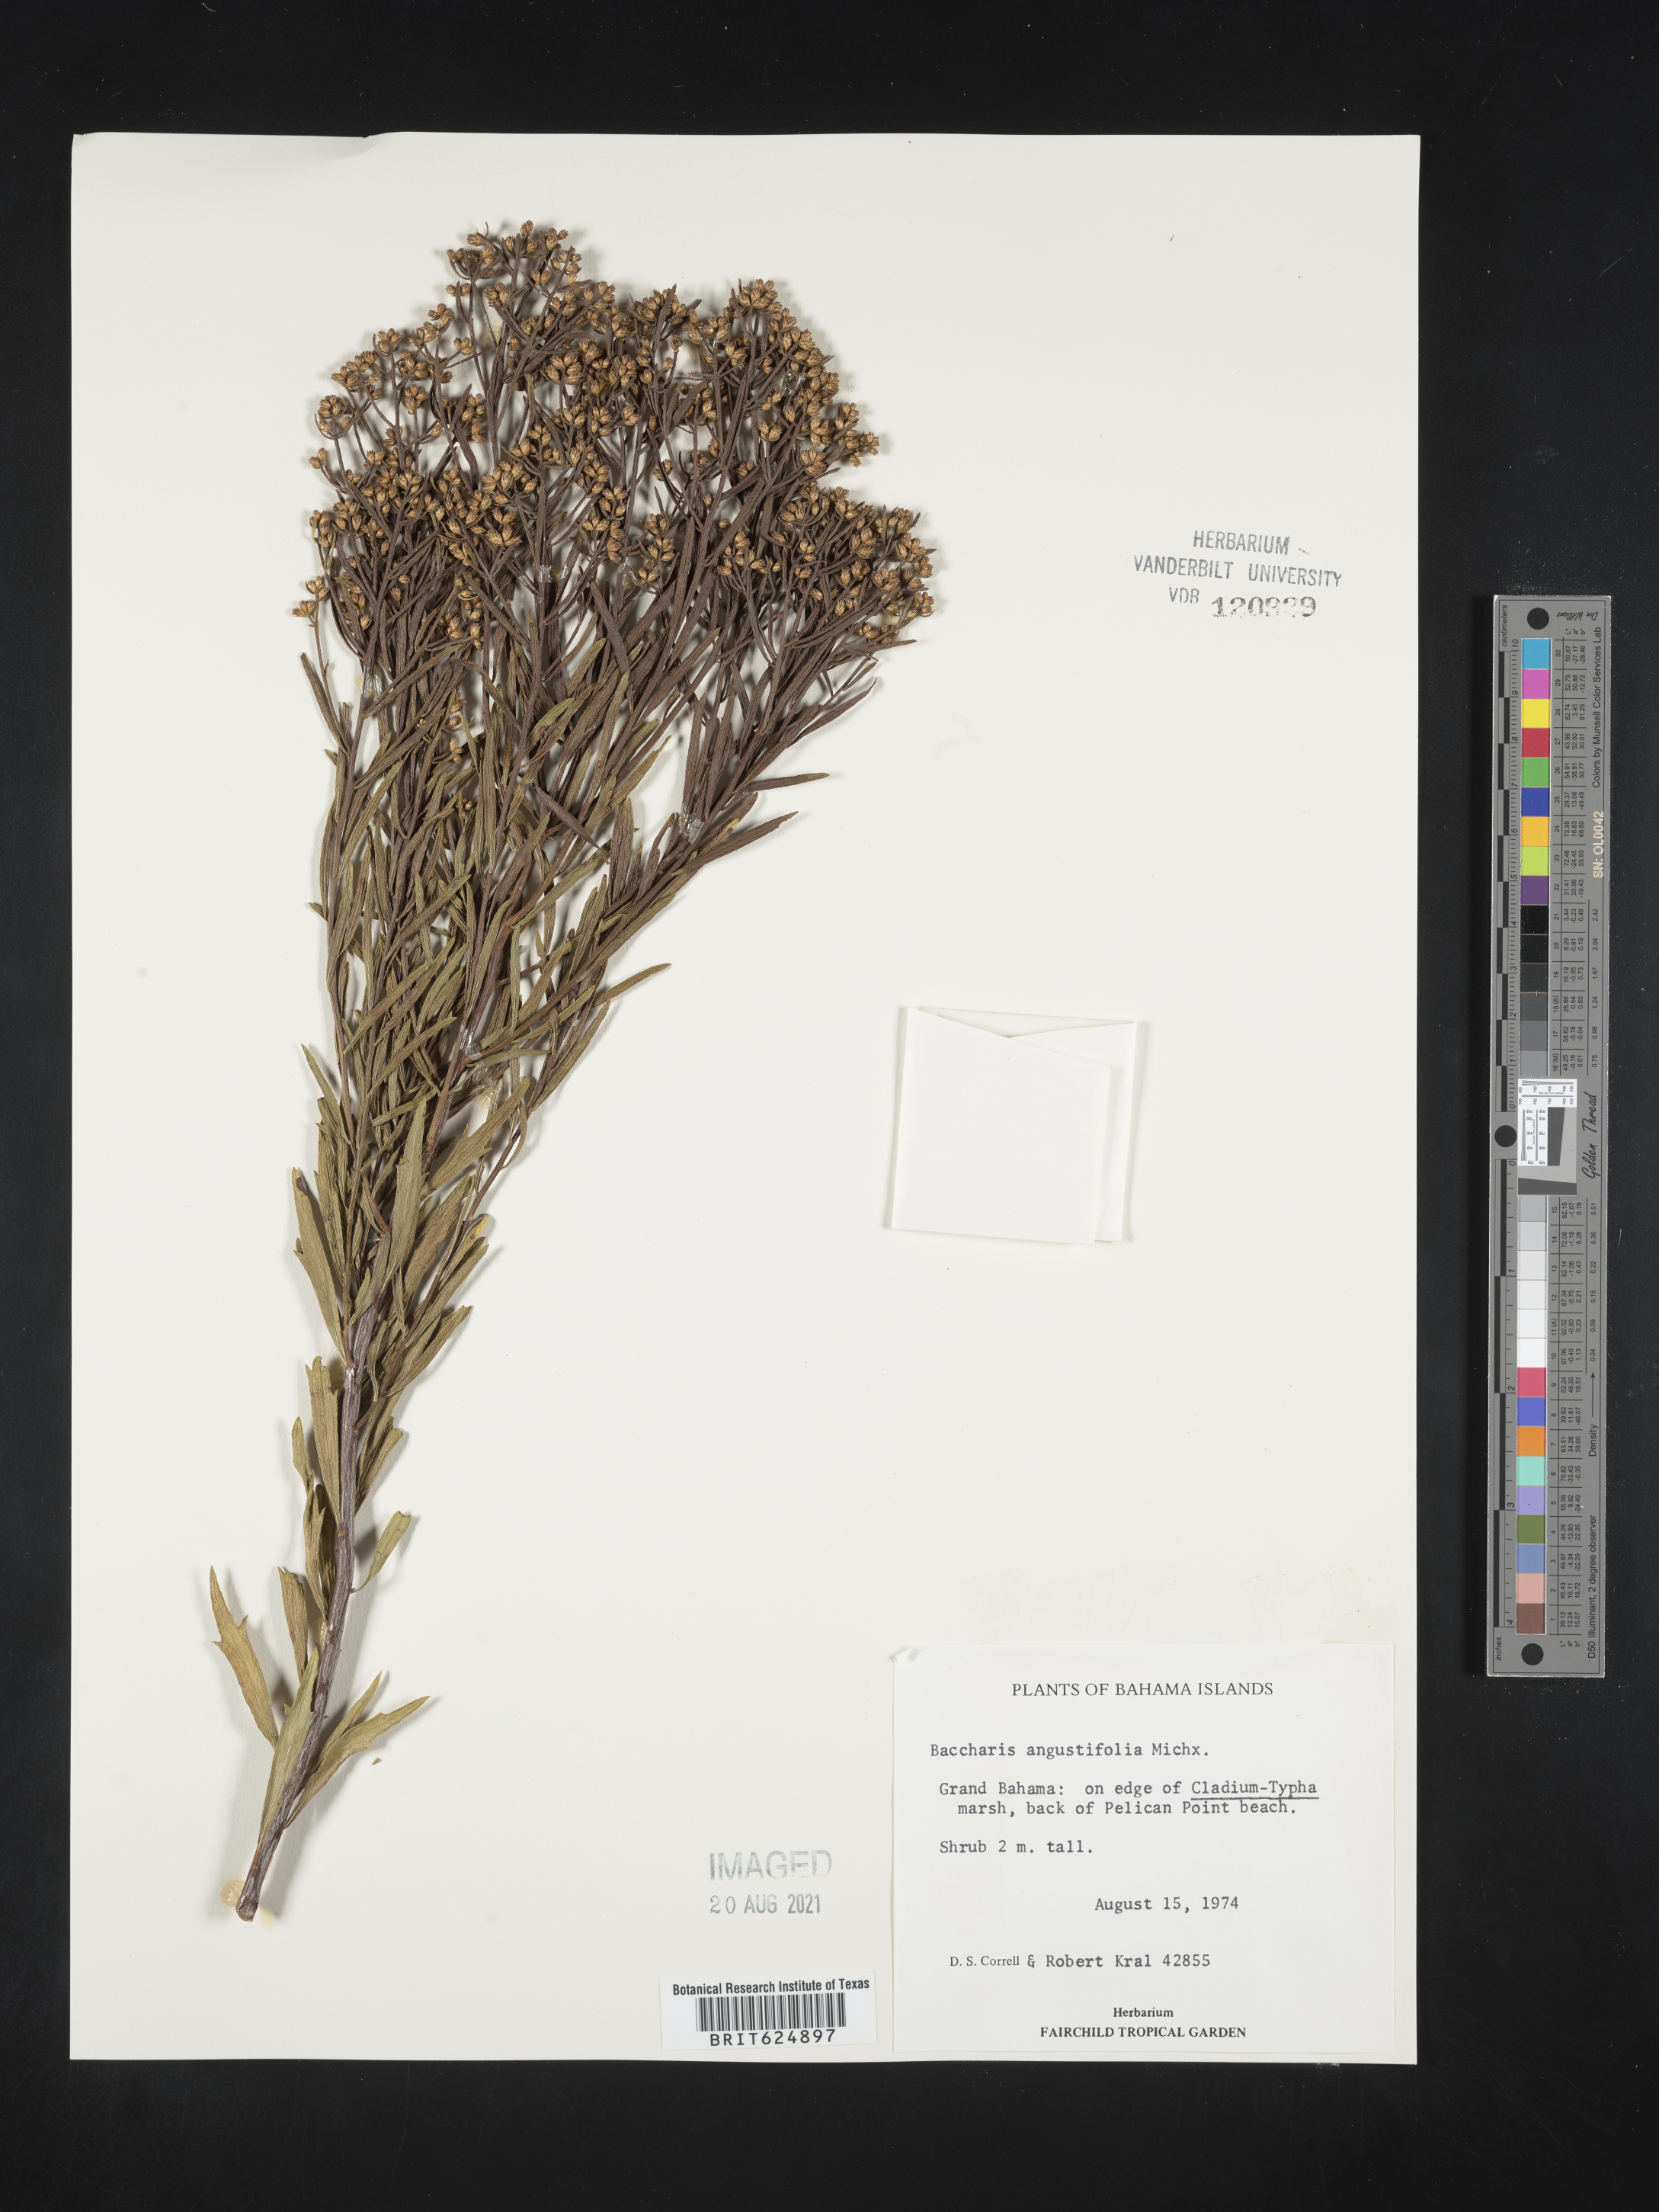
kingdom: Plantae
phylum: Tracheophyta
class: Magnoliopsida
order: Asterales
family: Asteraceae
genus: Baccharis
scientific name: Baccharis angustifolia
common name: Narrow-leaf baccharis
